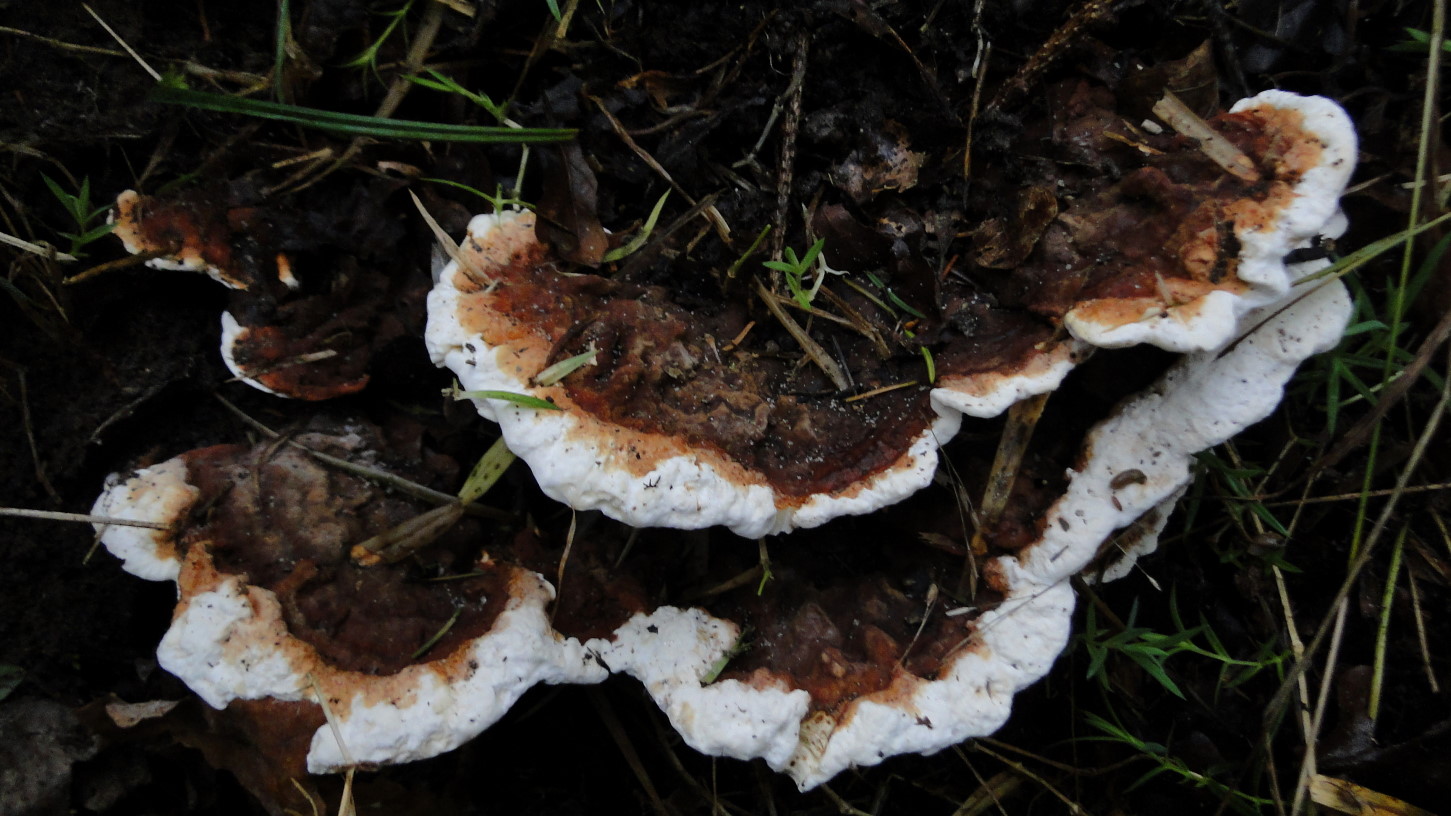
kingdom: Fungi
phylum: Basidiomycota
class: Agaricomycetes
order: Russulales
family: Bondarzewiaceae
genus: Heterobasidion
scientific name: Heterobasidion annosum
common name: almindelig rodfordærver
